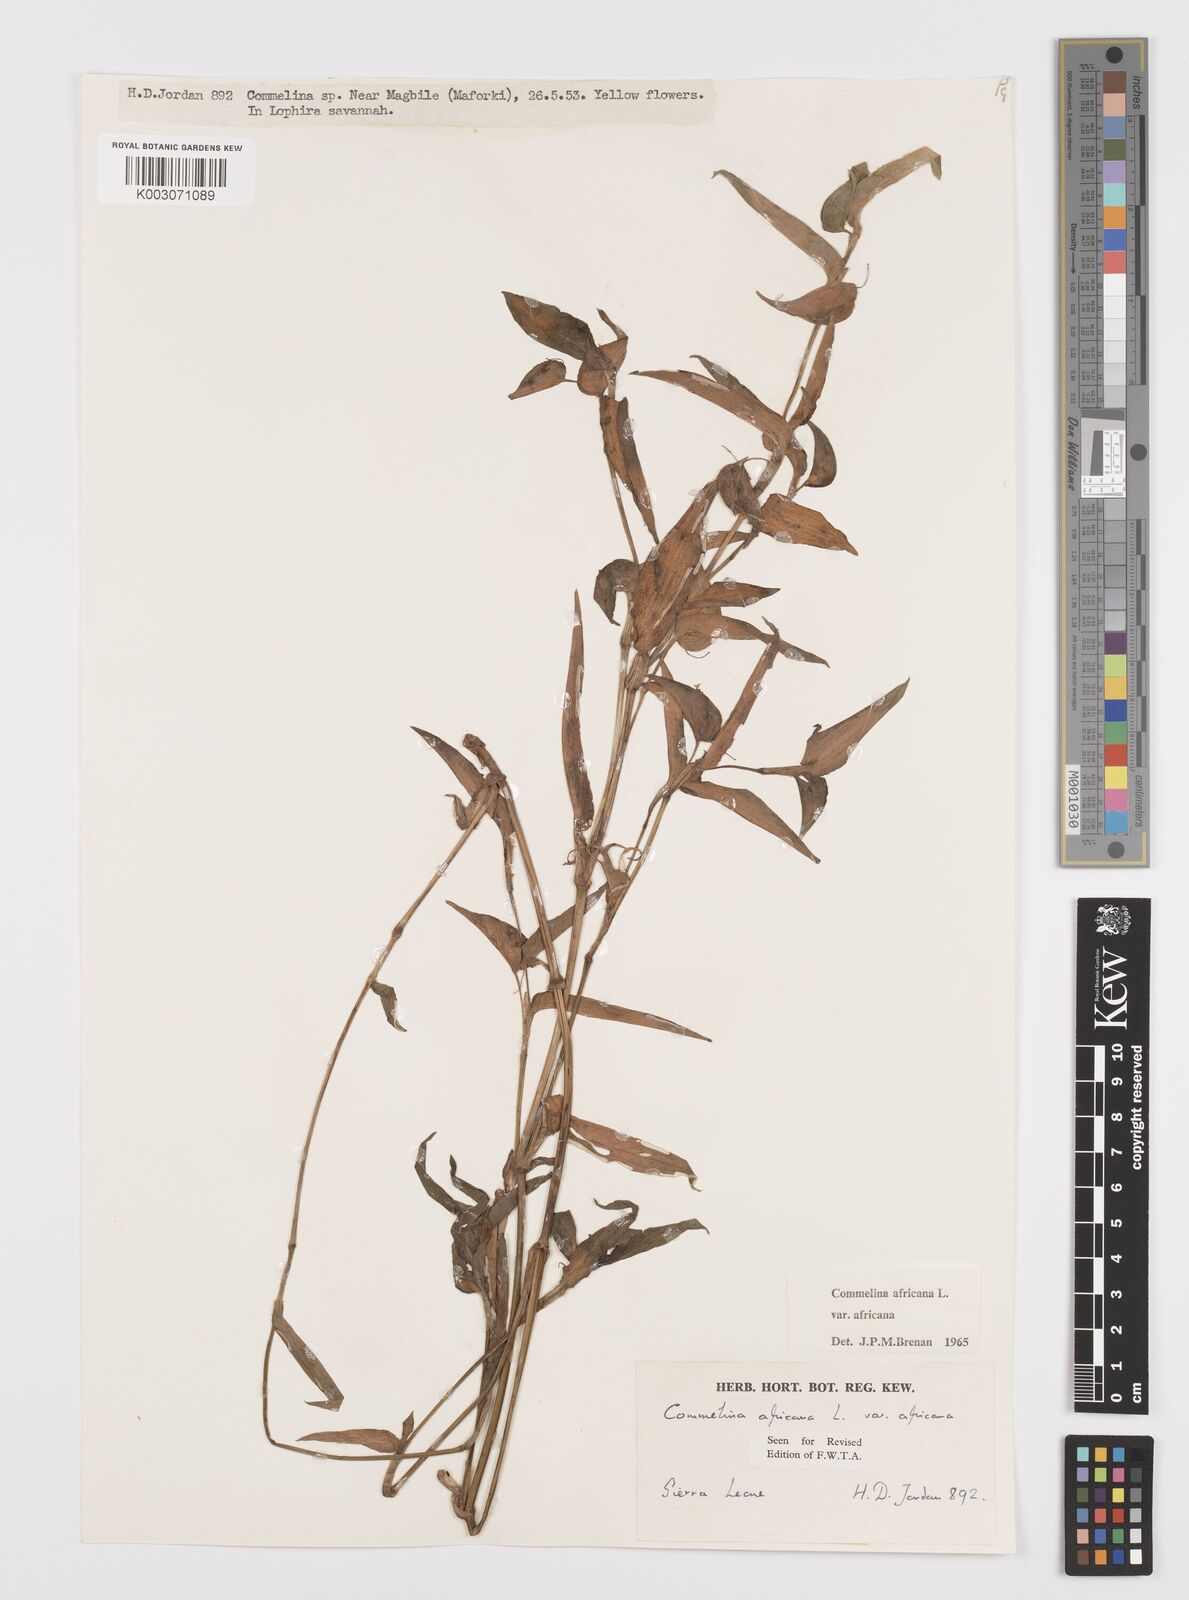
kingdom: Plantae
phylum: Tracheophyta
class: Liliopsida
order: Commelinales
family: Commelinaceae
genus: Commelina
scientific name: Commelina africana
